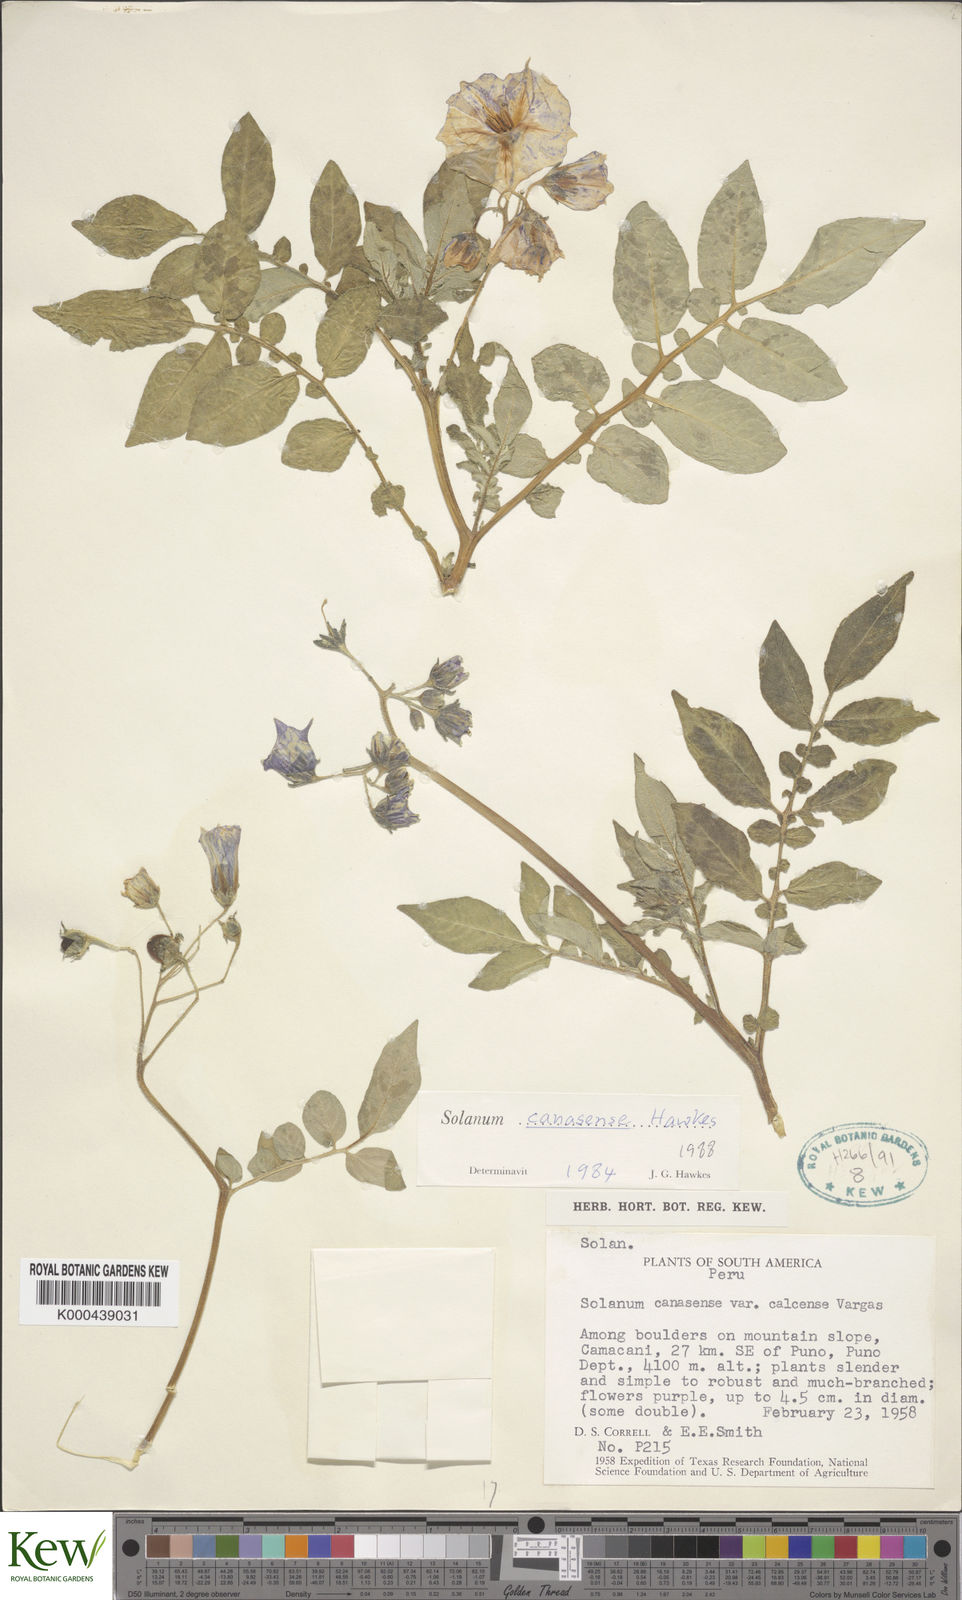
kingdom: Plantae
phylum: Tracheophyta
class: Magnoliopsida
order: Solanales
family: Solanaceae
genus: Solanum
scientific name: Solanum candolleanum
